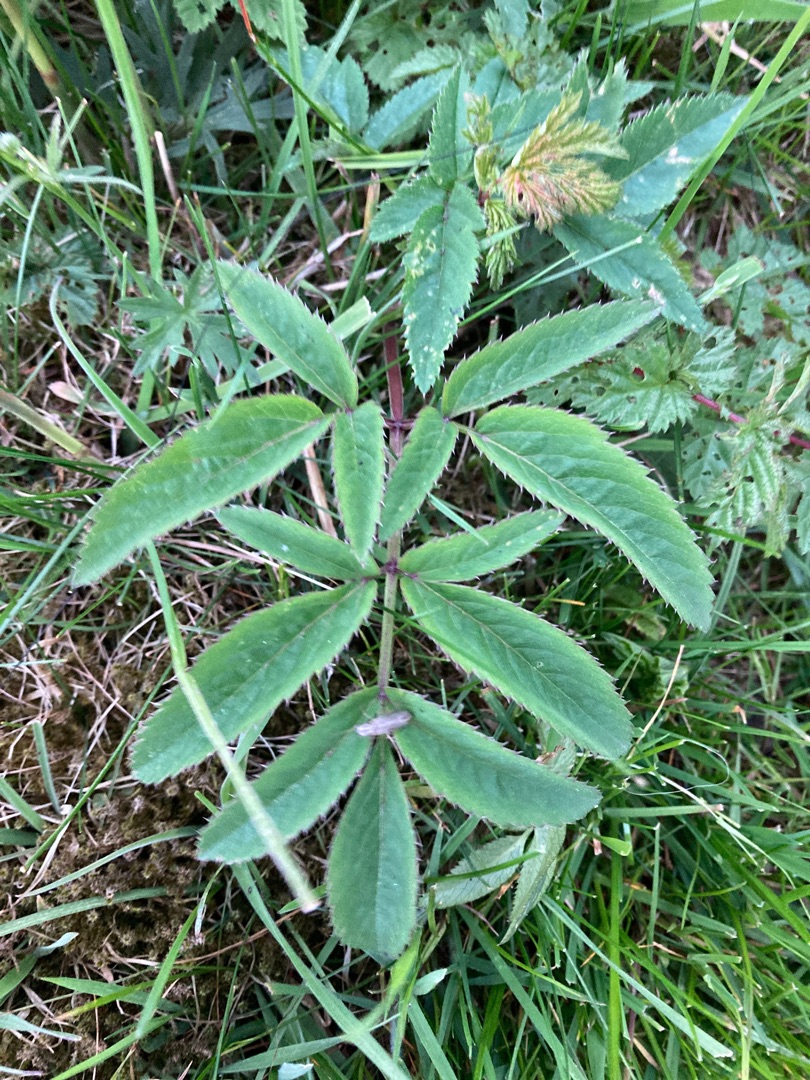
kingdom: Plantae
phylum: Tracheophyta
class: Magnoliopsida
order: Apiales
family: Apiaceae
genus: Angelica
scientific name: Angelica sylvestris
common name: Angelik
